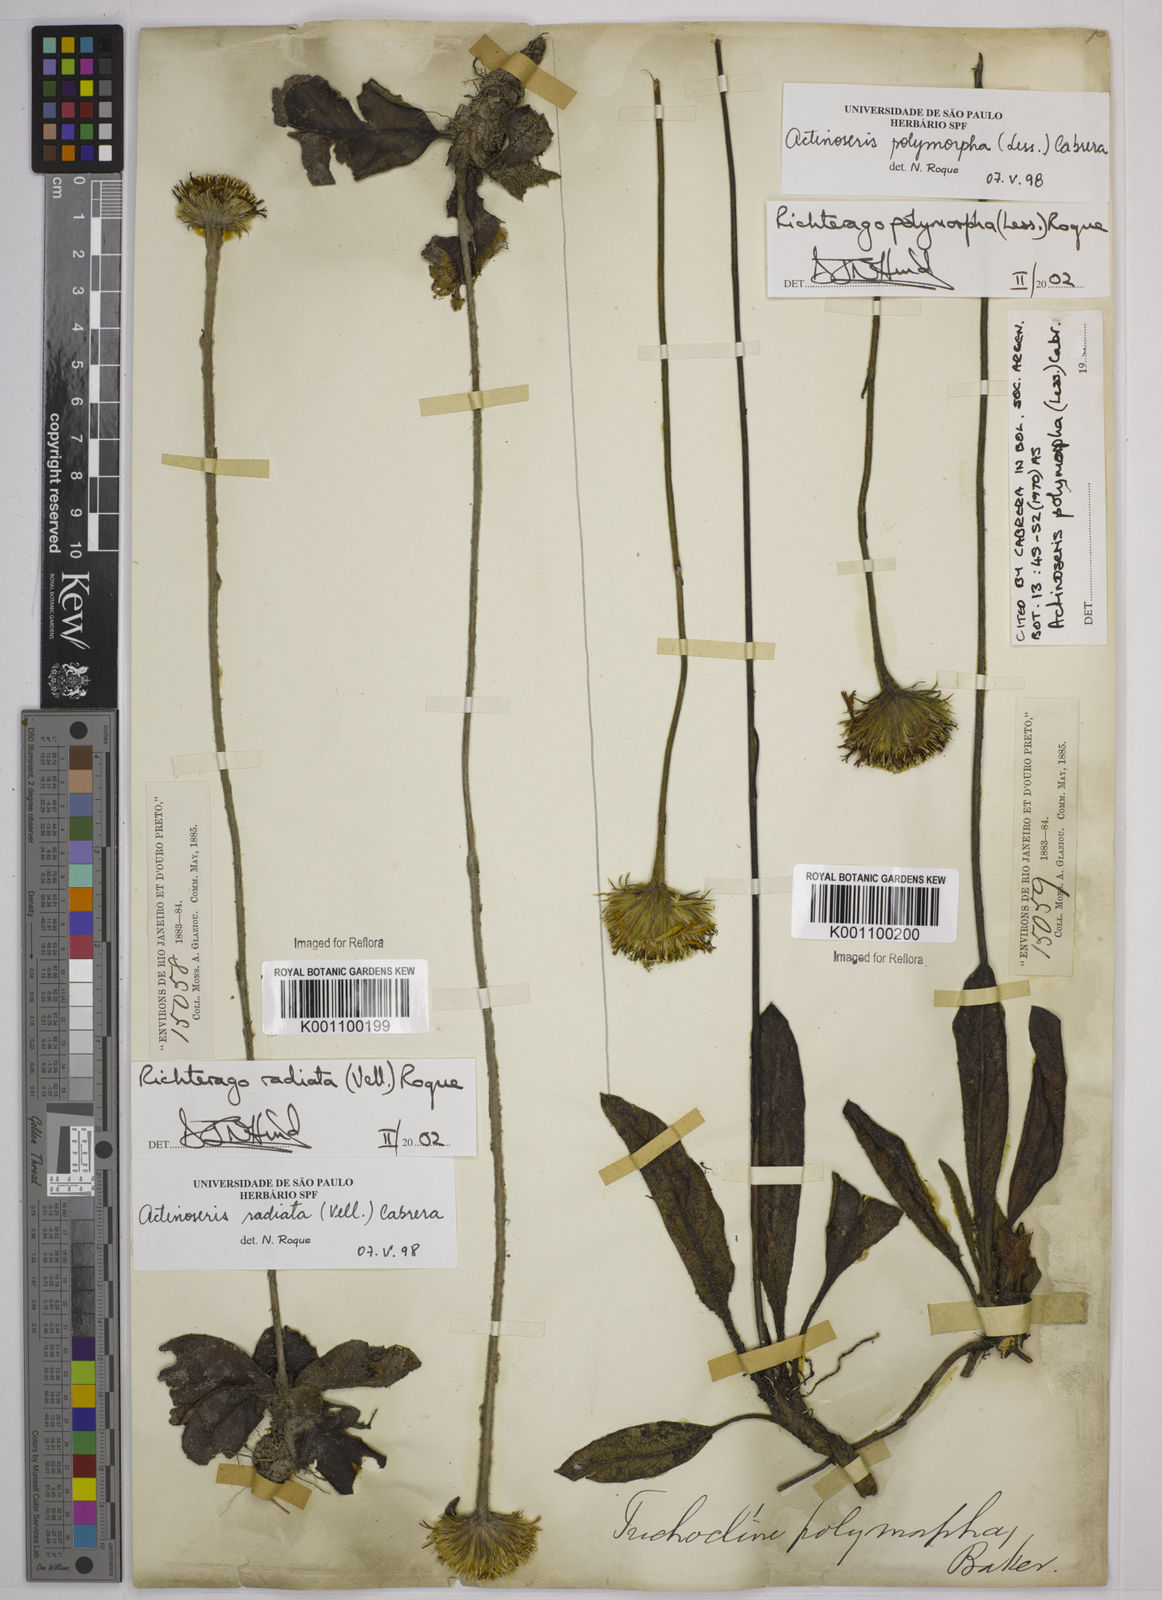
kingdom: Plantae
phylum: Tracheophyta
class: Magnoliopsida
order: Asterales
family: Asteraceae
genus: Richterago
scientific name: Richterago radiata
